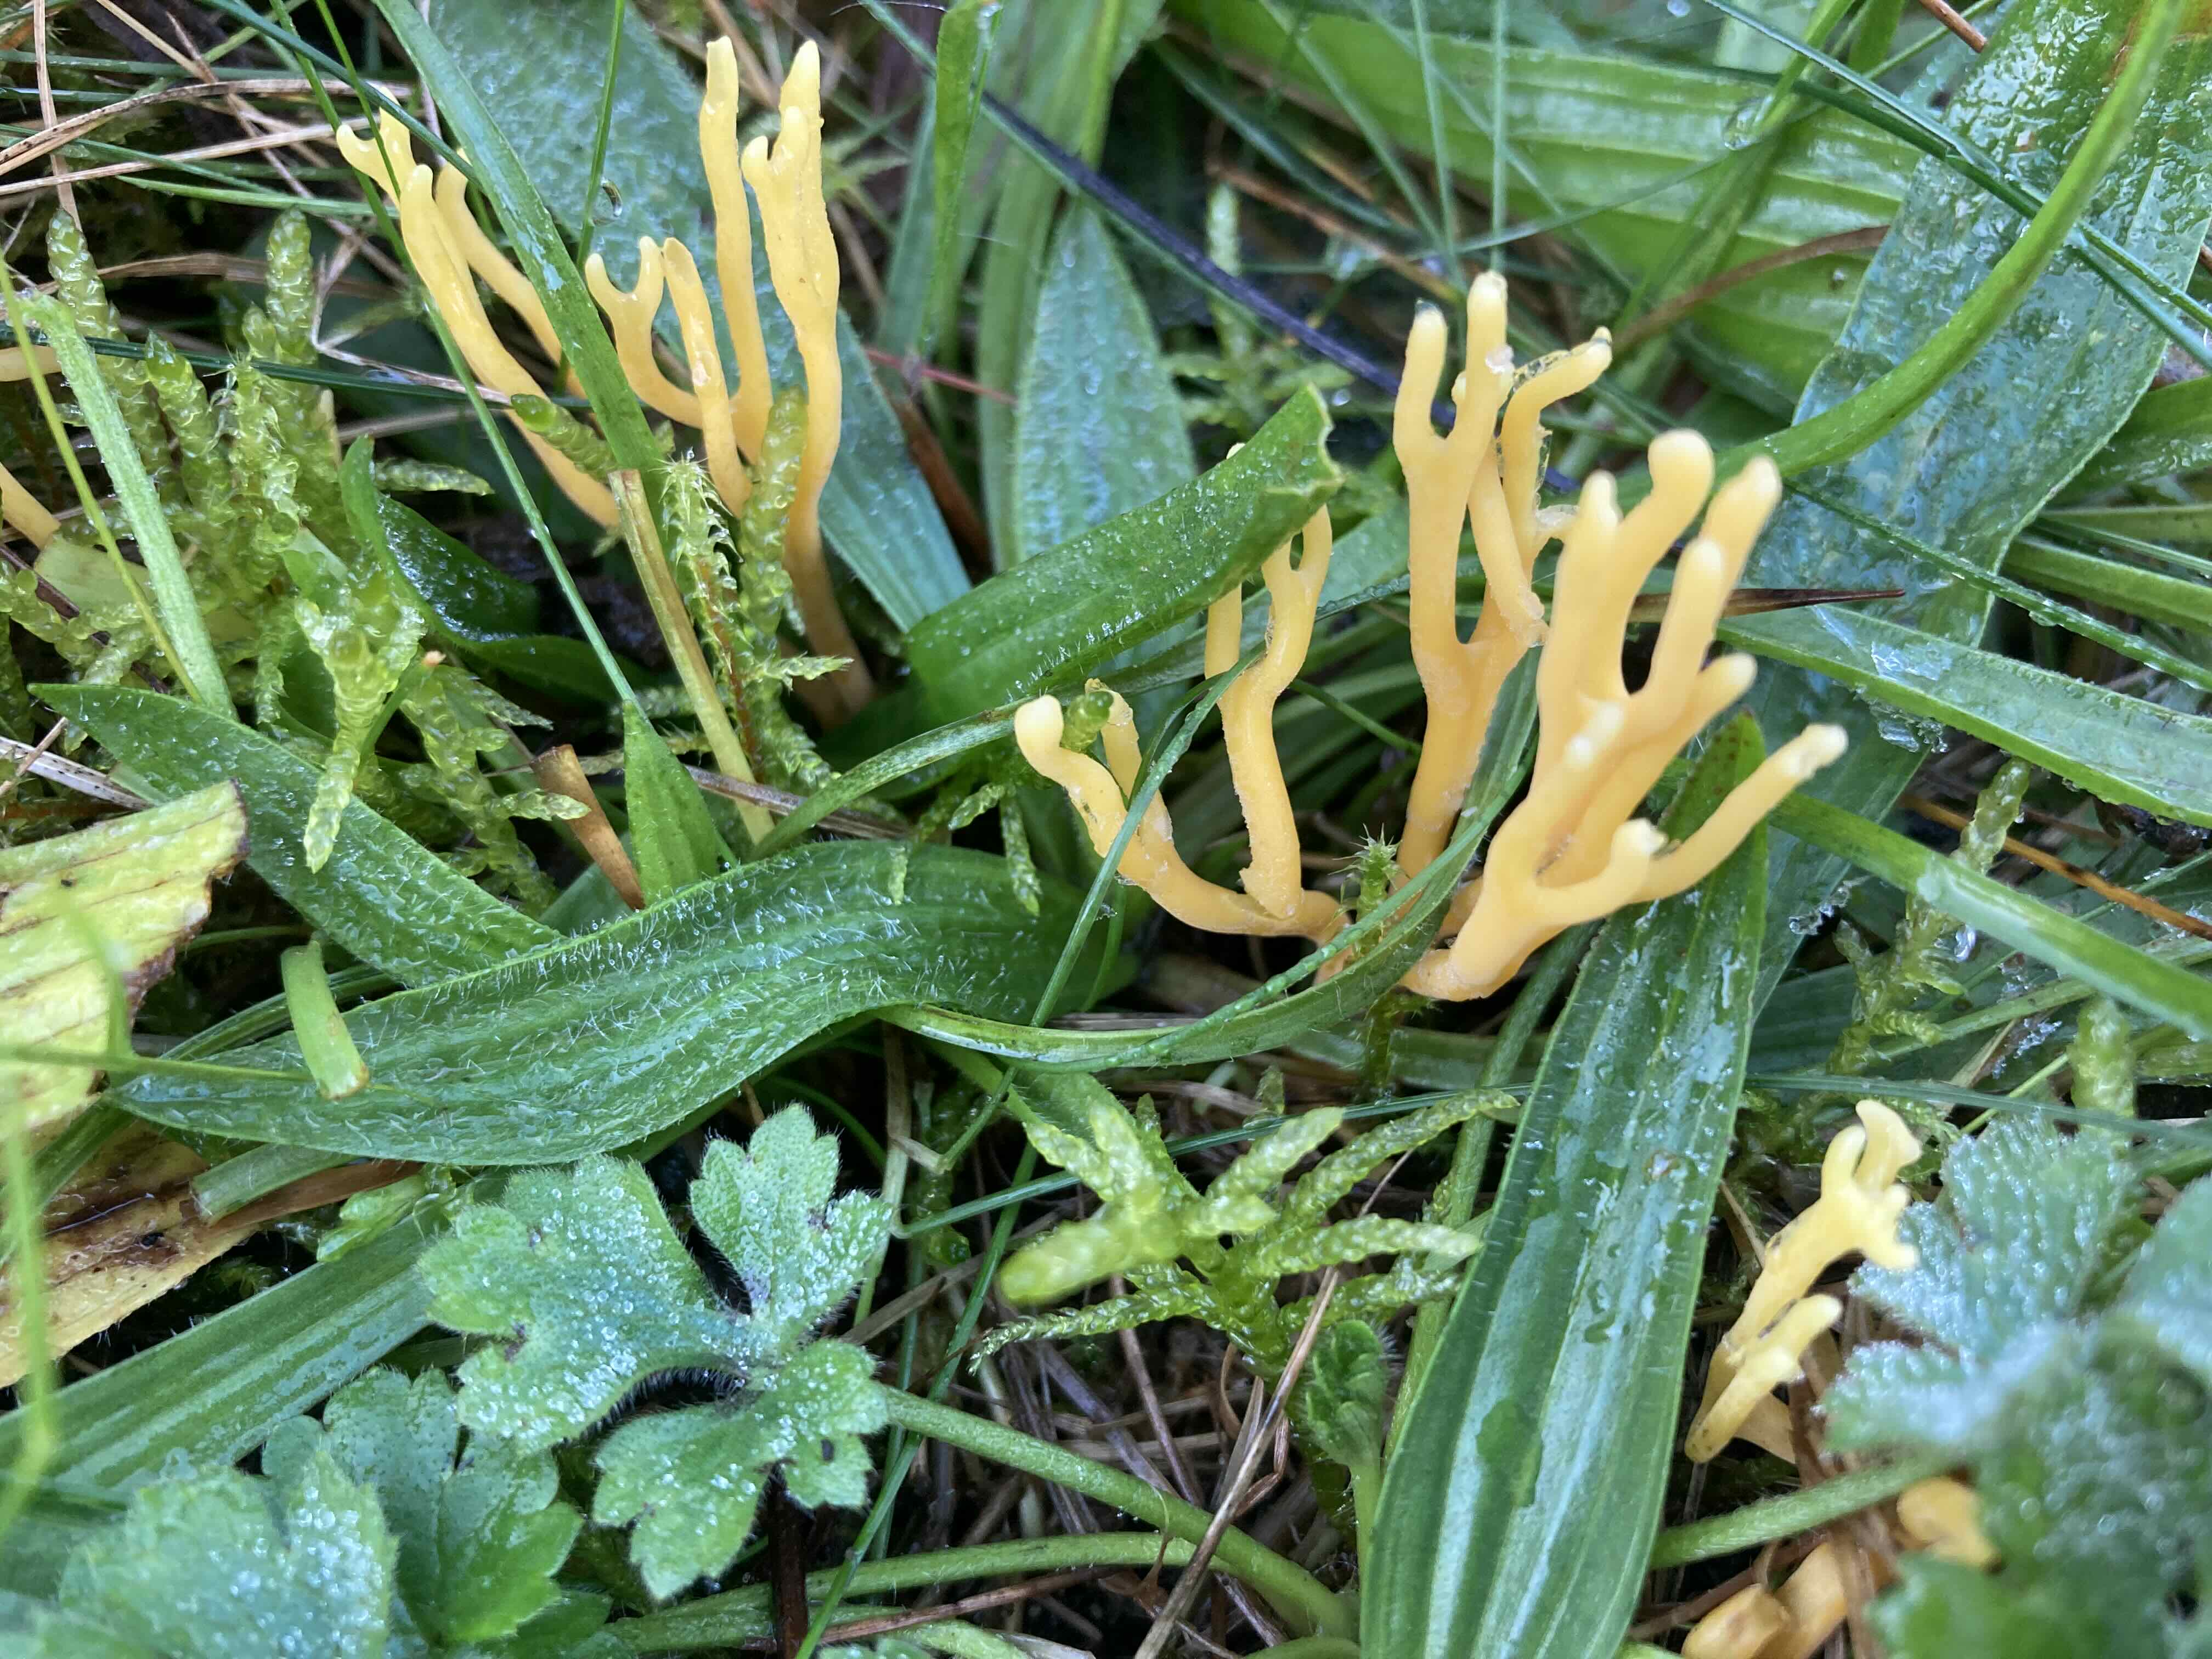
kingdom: Fungi
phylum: Basidiomycota
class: Agaricomycetes
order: Agaricales
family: Clavariaceae
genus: Clavulinopsis
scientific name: Clavulinopsis corniculata
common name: eng-køllesvamp
